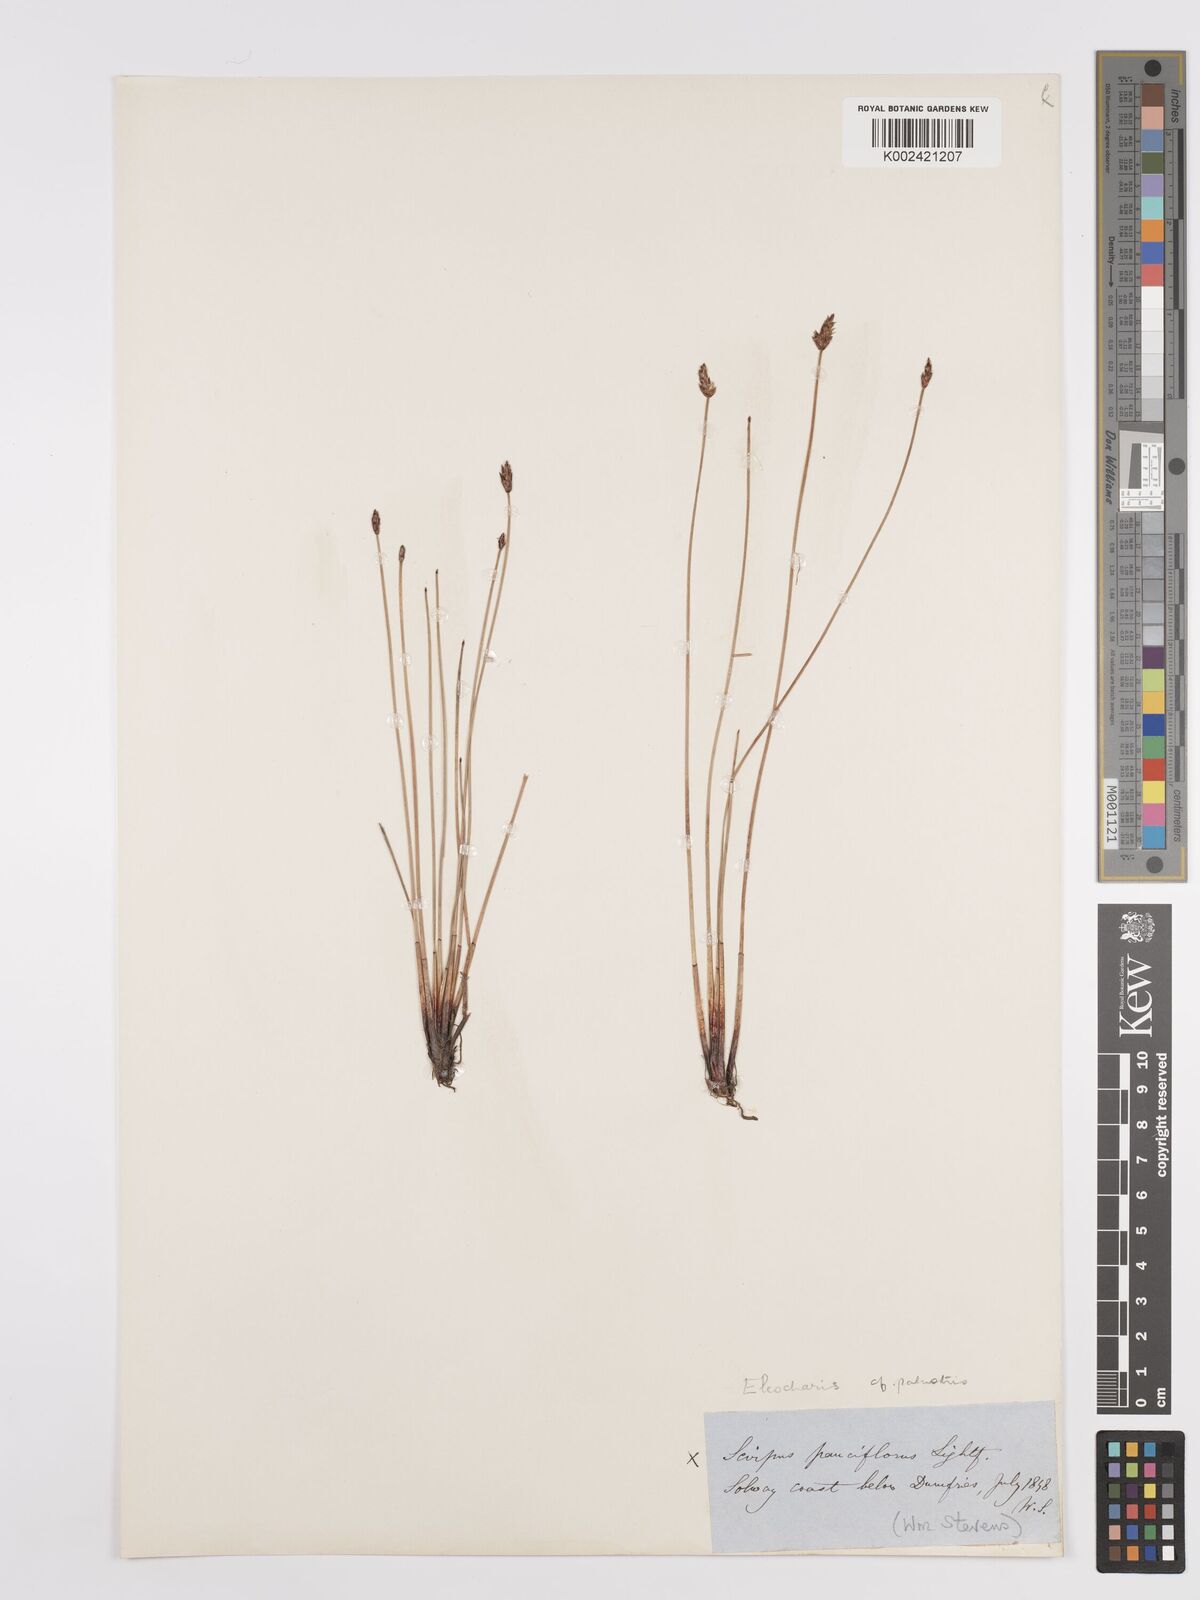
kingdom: Plantae
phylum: Tracheophyta
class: Liliopsida
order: Poales
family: Cyperaceae
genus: Eleocharis
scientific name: Eleocharis palustris
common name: Common spike-rush
